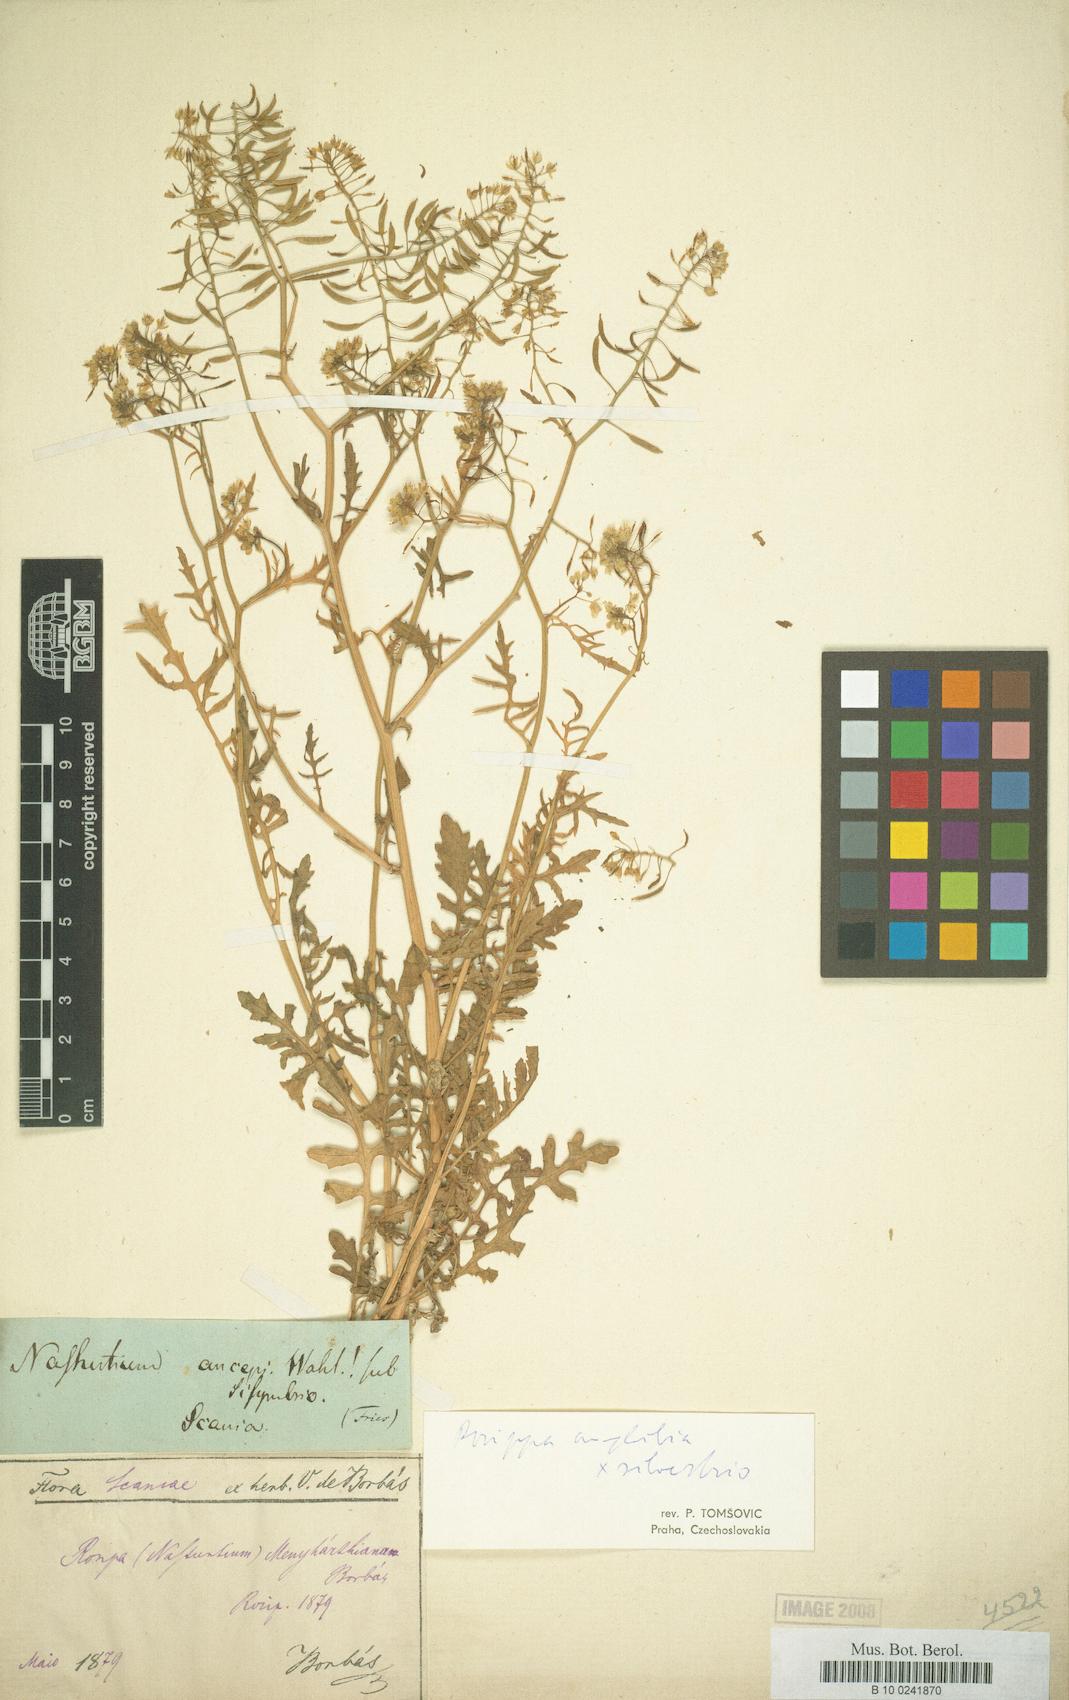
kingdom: Plantae
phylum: Tracheophyta
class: Magnoliopsida
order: Brassicales
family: Brassicaceae
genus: Nasturtium
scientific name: Nasturtium
